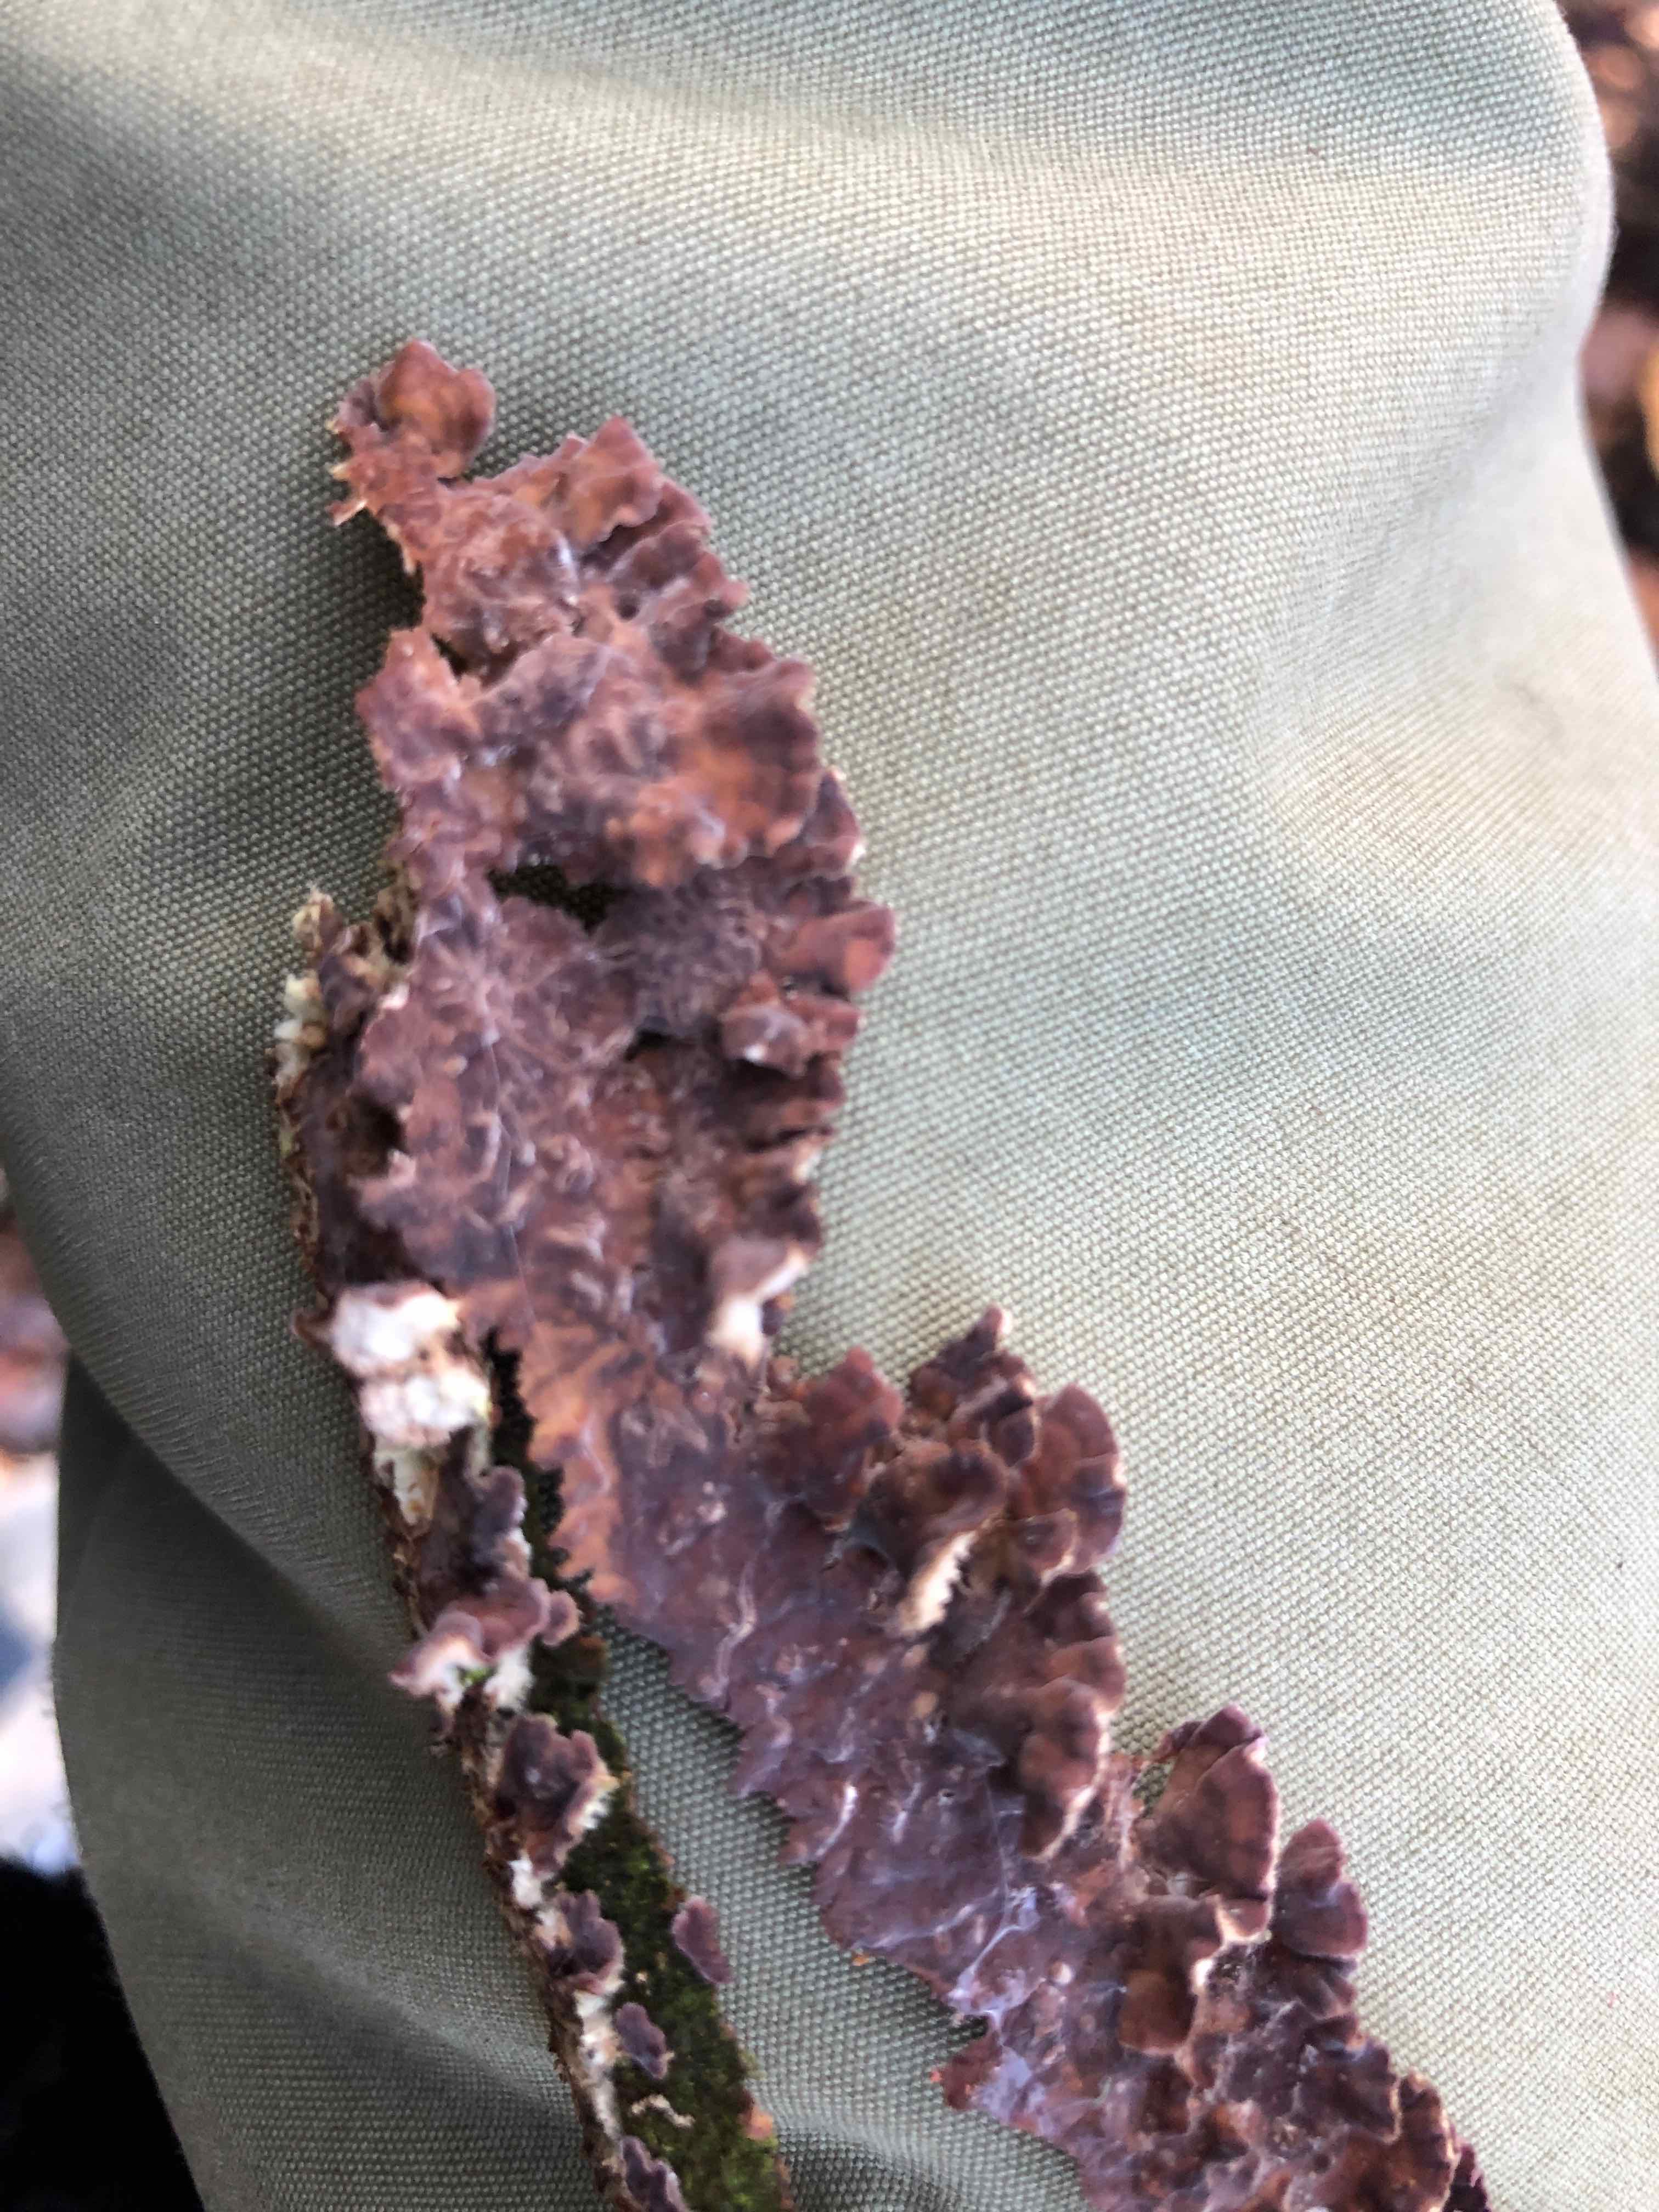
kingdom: Fungi
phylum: Basidiomycota
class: Agaricomycetes
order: Agaricales
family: Cyphellaceae
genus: Chondrostereum
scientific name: Chondrostereum purpureum
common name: purpurlædersvamp
